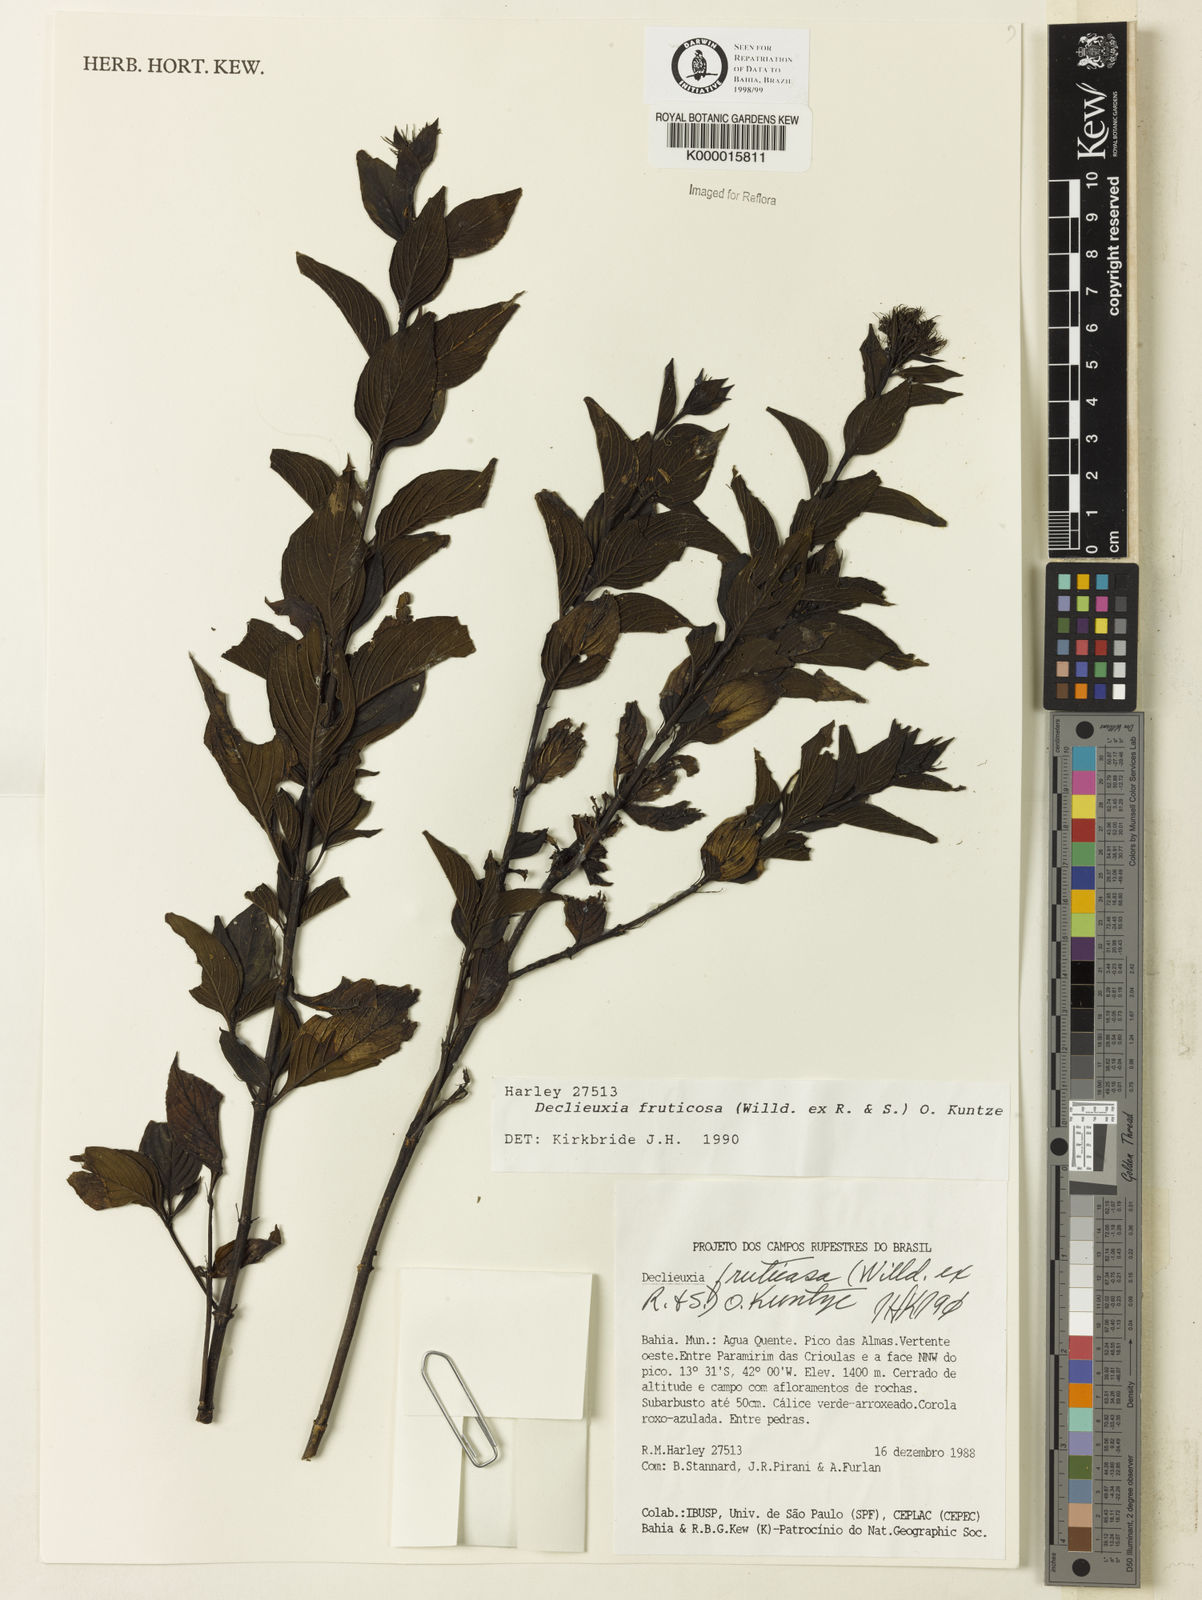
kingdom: Plantae
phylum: Tracheophyta
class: Magnoliopsida
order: Gentianales
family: Rubiaceae
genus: Declieuxia
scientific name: Declieuxia fruticosa
